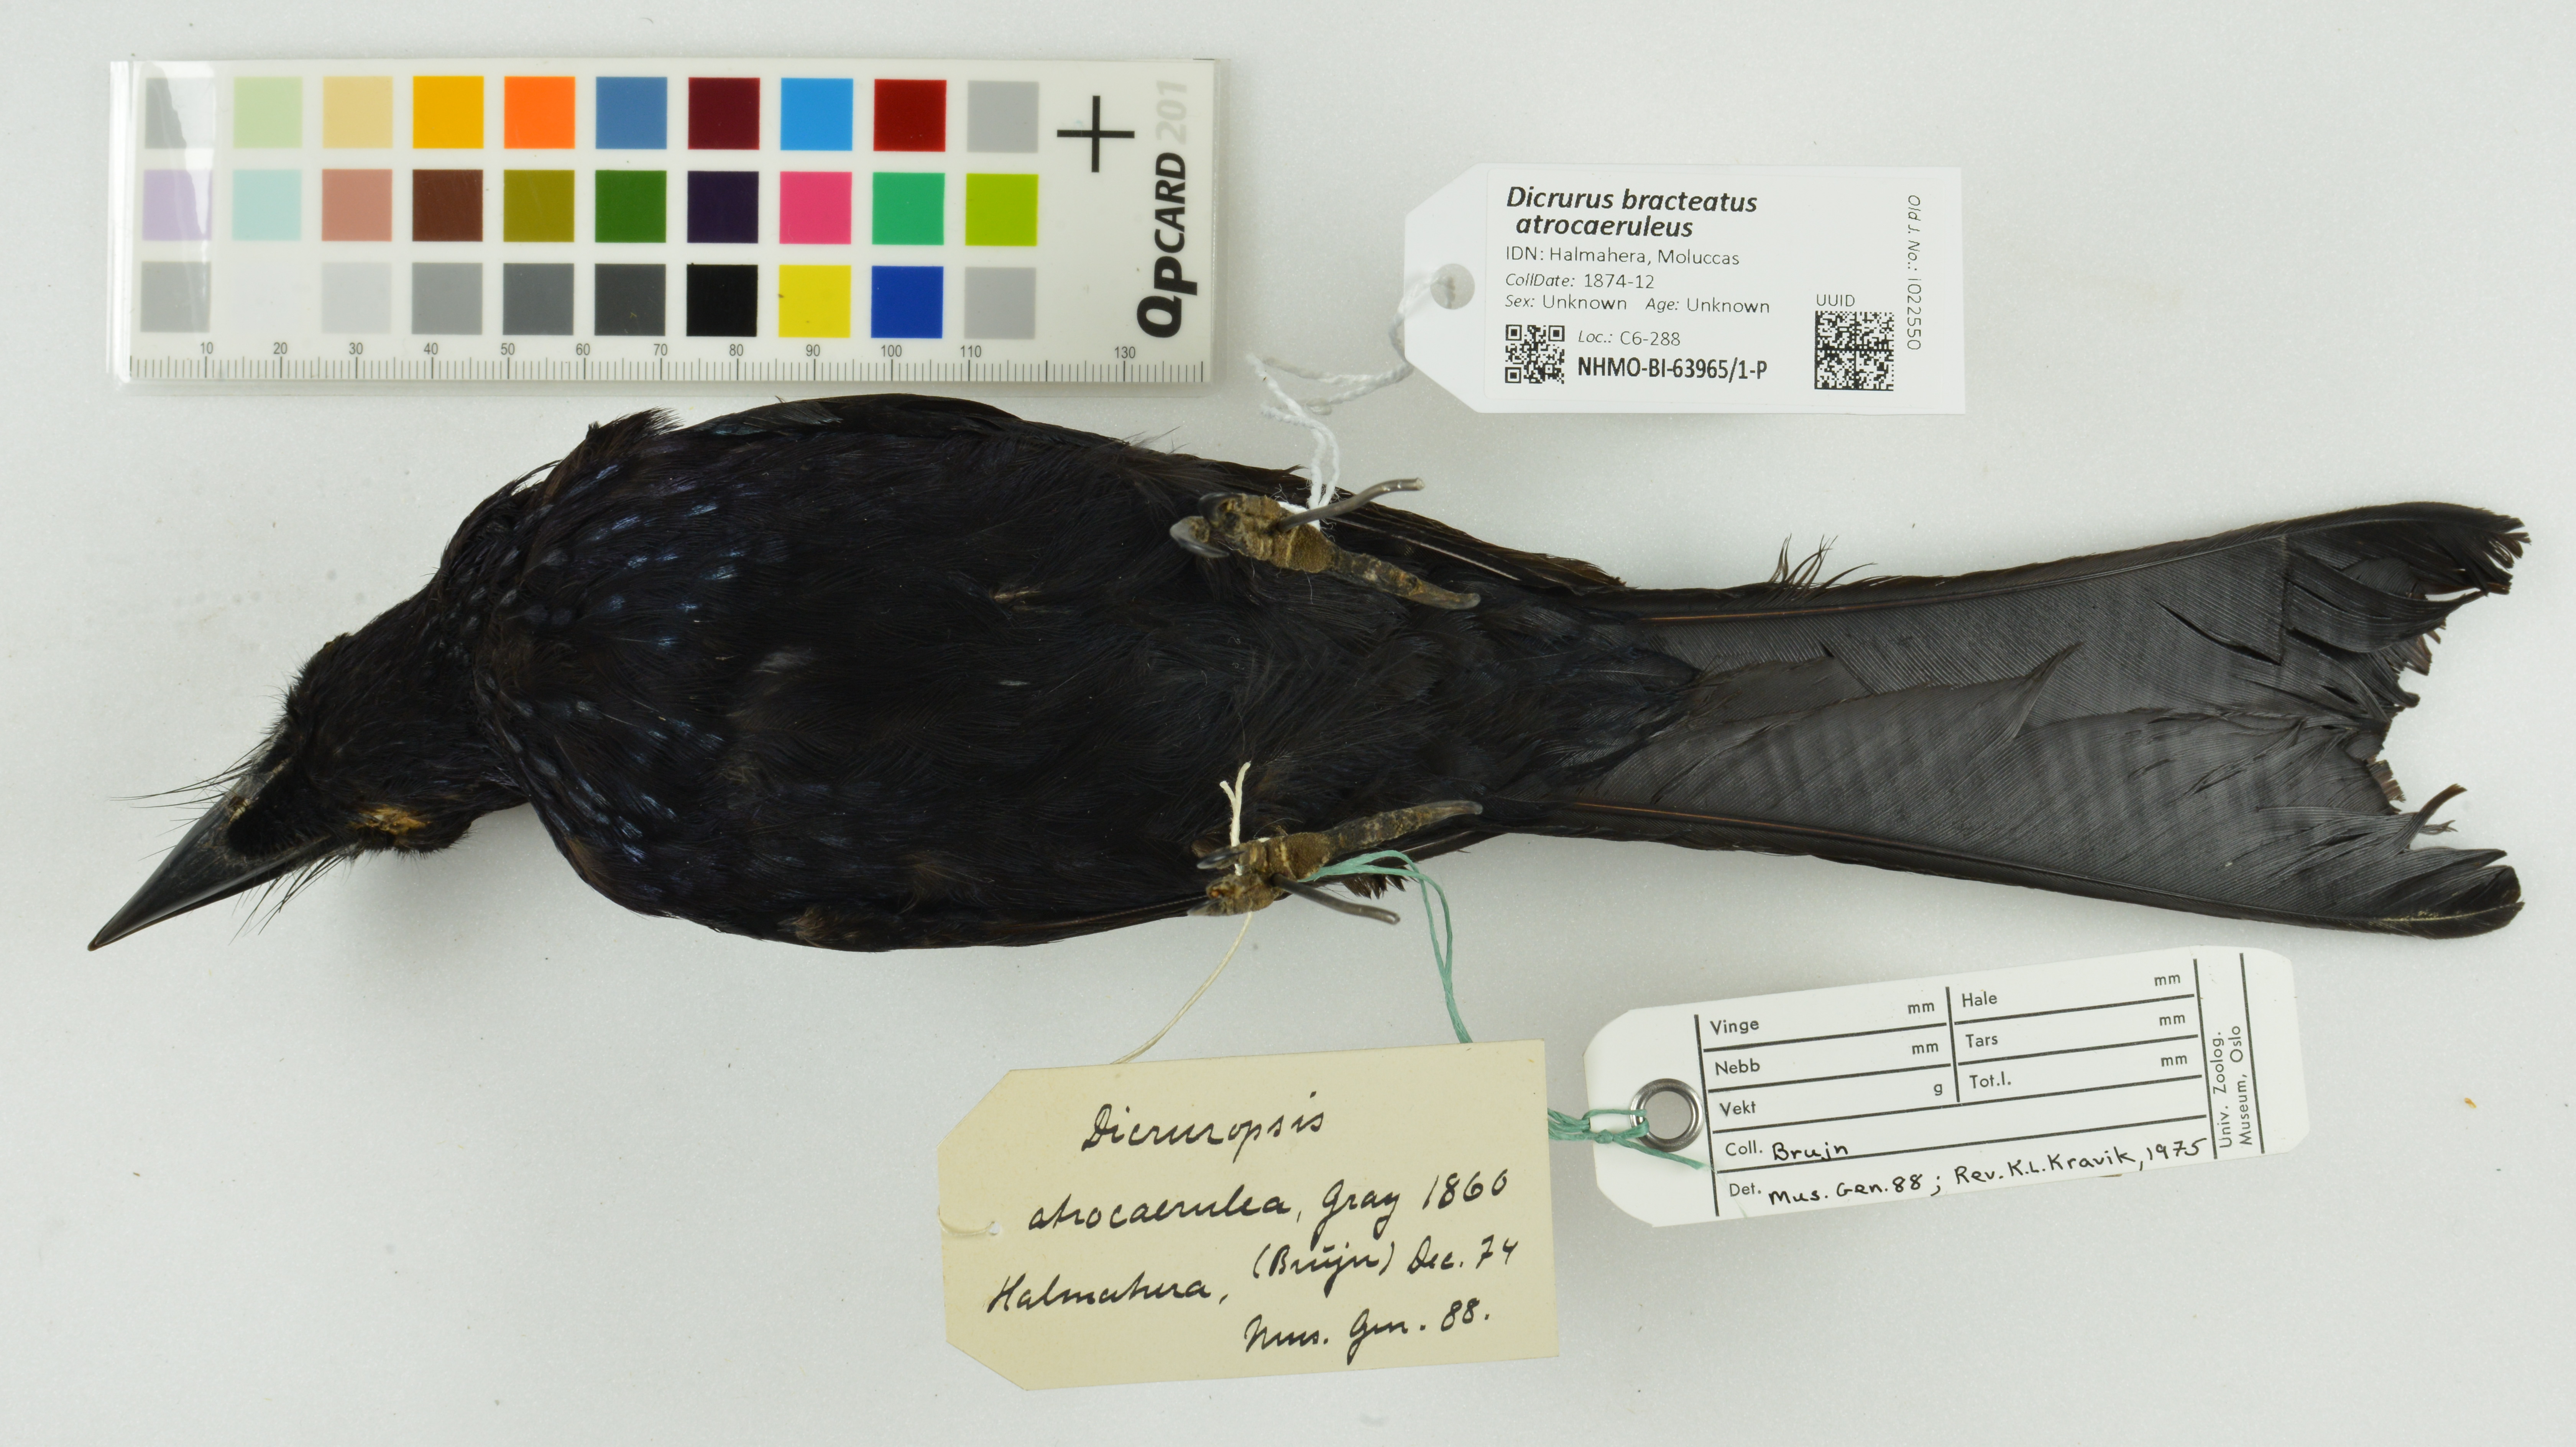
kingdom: Animalia
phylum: Chordata
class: Aves
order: Passeriformes
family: Dicruridae
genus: Dicrurus
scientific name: Dicrurus bracteatus
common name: Spangled drongo
